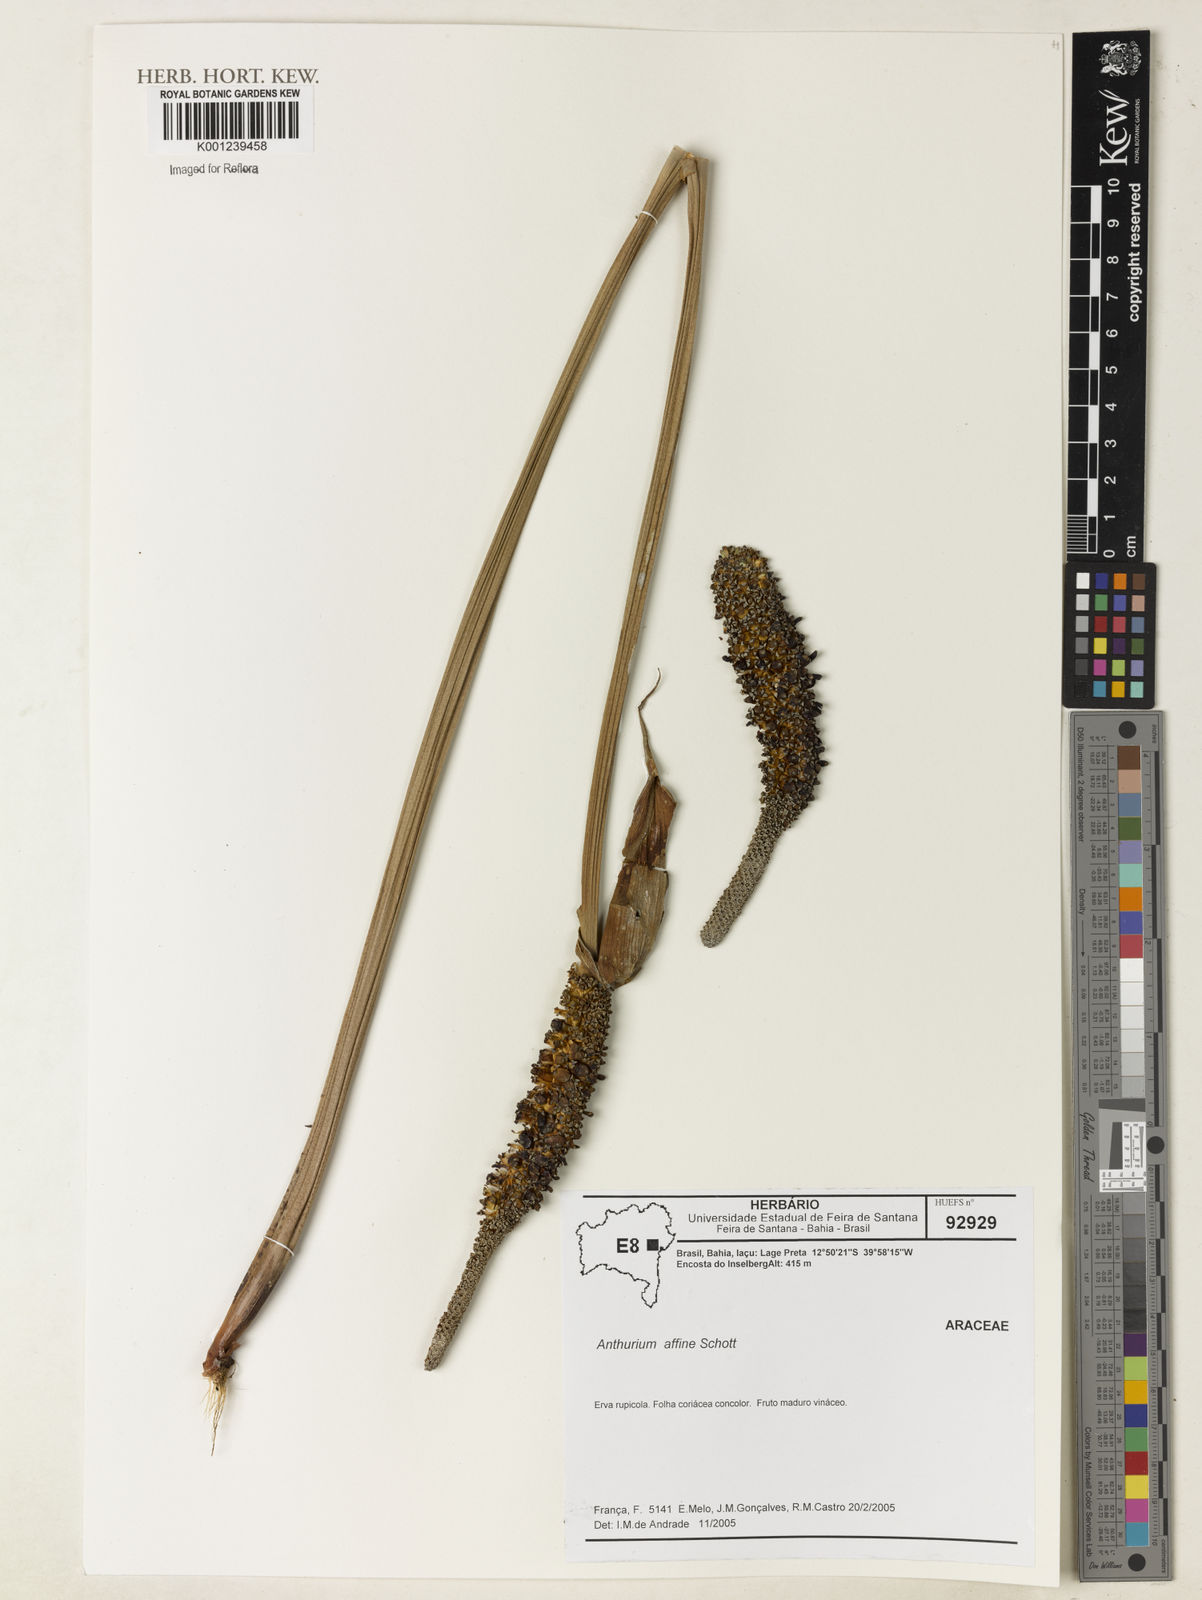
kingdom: Plantae
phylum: Tracheophyta
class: Liliopsida
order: Alismatales
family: Araceae
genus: Anthurium
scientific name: Anthurium affine
